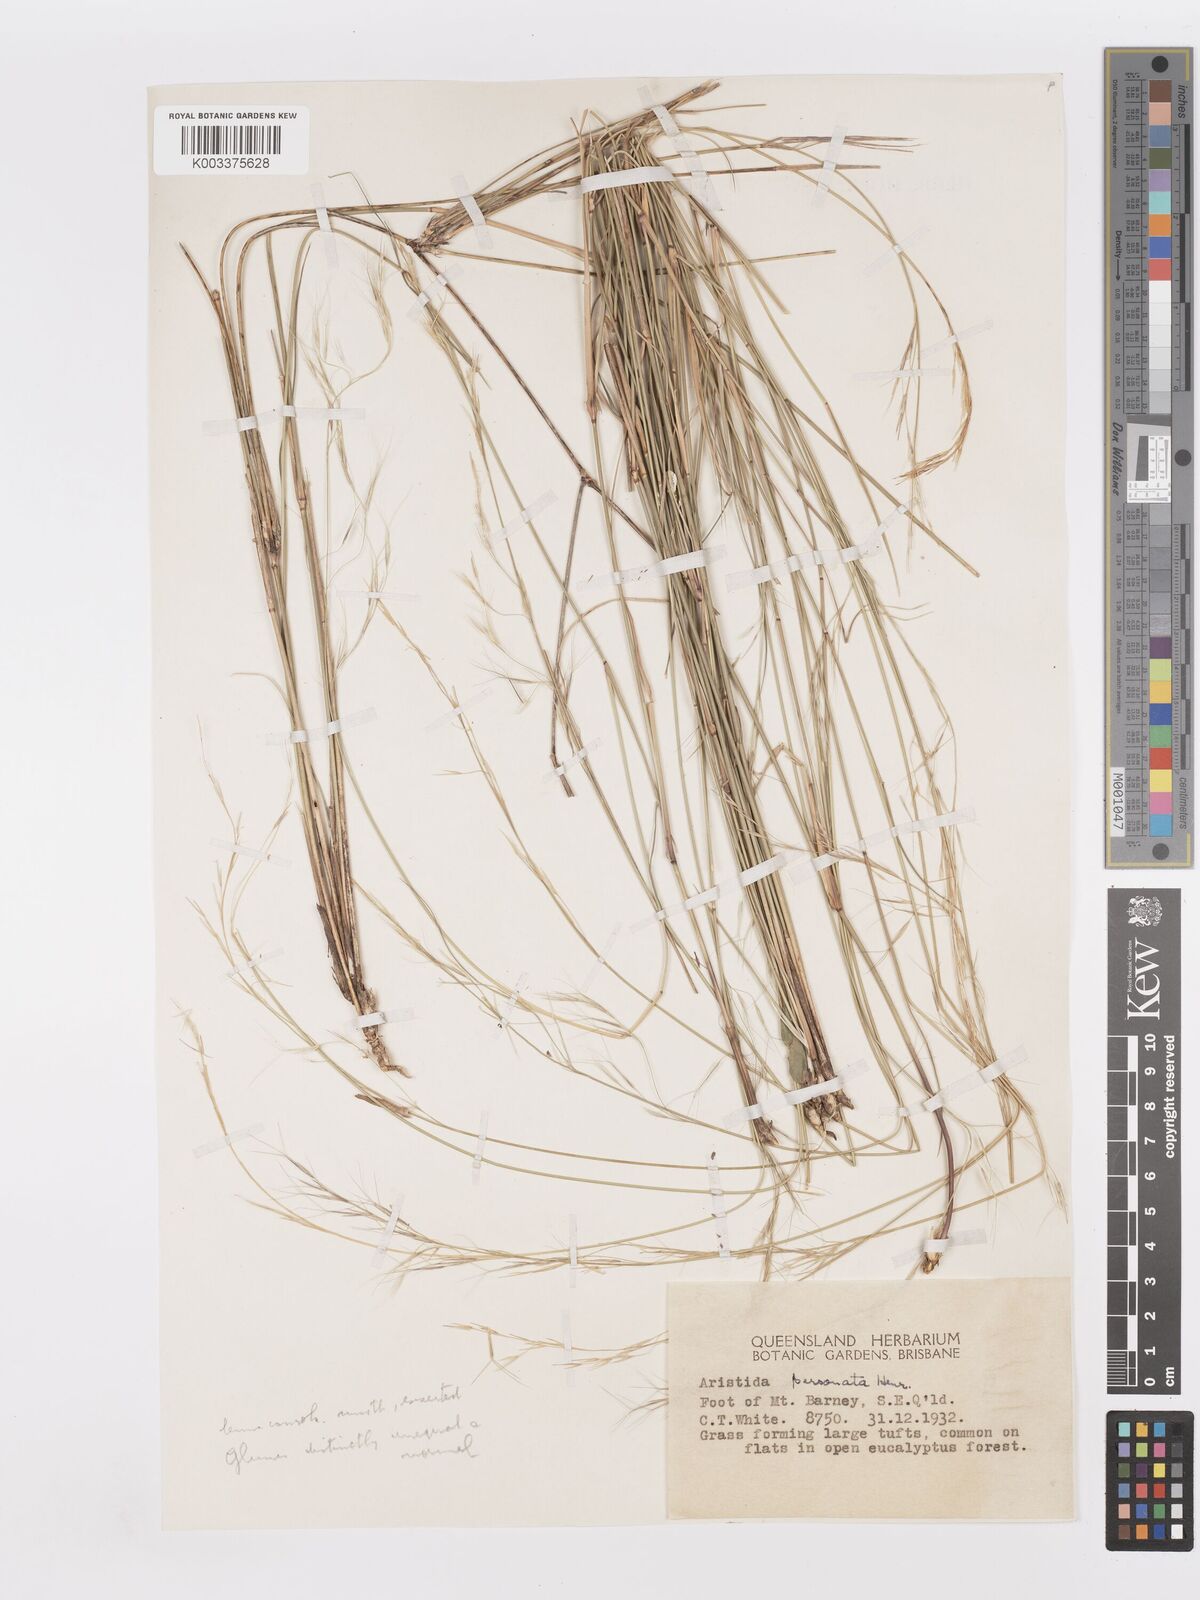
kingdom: Plantae
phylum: Tracheophyta
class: Liliopsida
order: Poales
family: Poaceae
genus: Aristida
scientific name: Aristida personata
